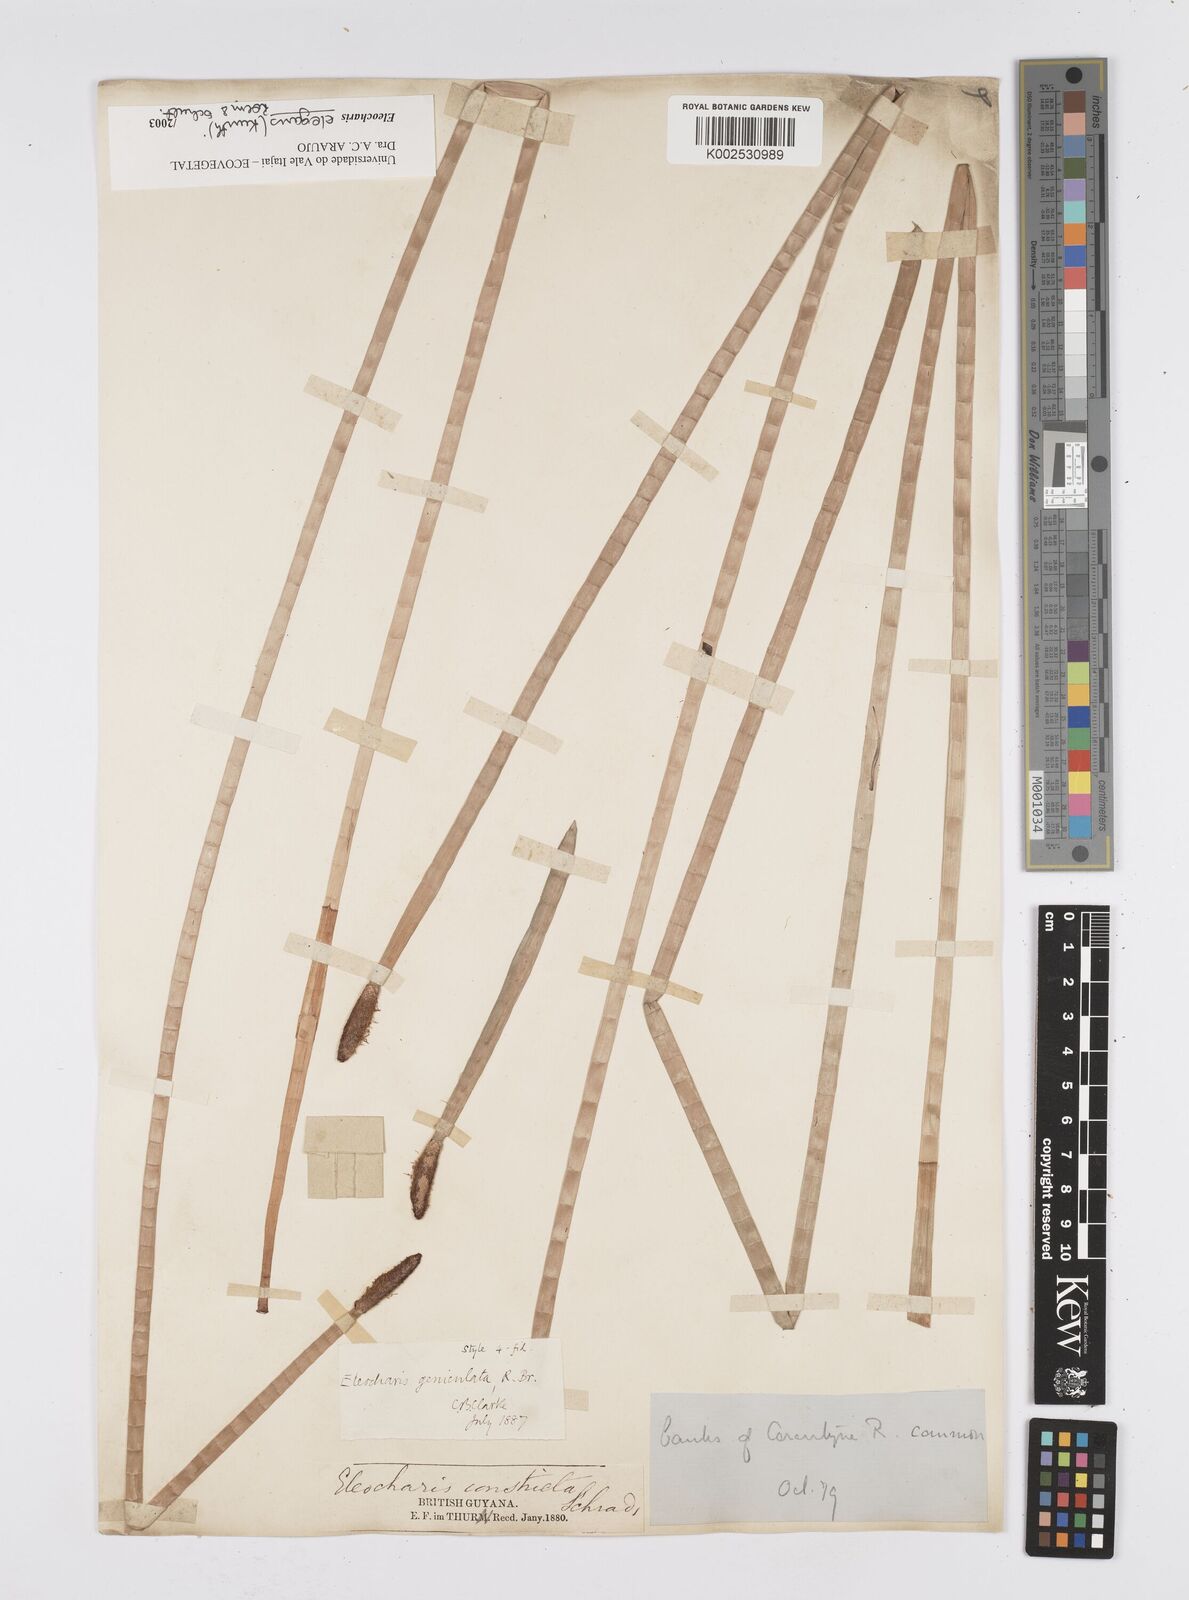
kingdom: Plantae
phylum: Tracheophyta
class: Liliopsida
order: Poales
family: Cyperaceae
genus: Eleocharis
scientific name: Eleocharis elegans
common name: Elegant spike-rush
